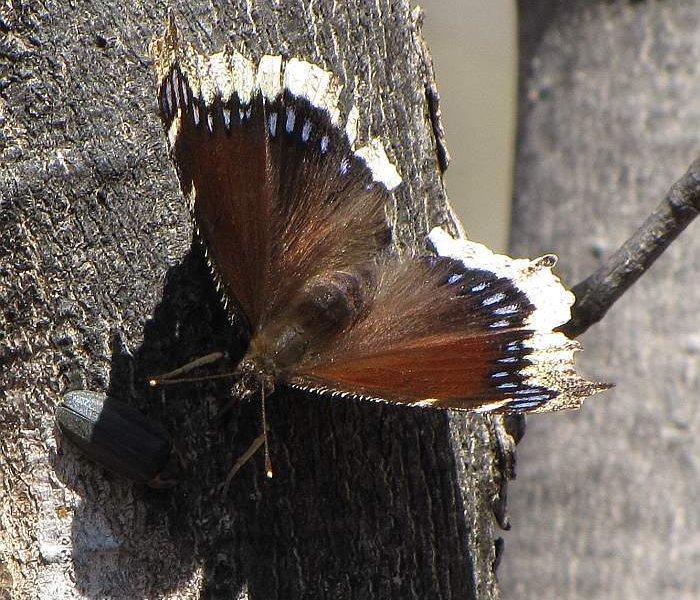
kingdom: Animalia
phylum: Arthropoda
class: Insecta
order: Lepidoptera
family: Nymphalidae
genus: Nymphalis
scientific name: Nymphalis antiopa
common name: Mourning Cloak
